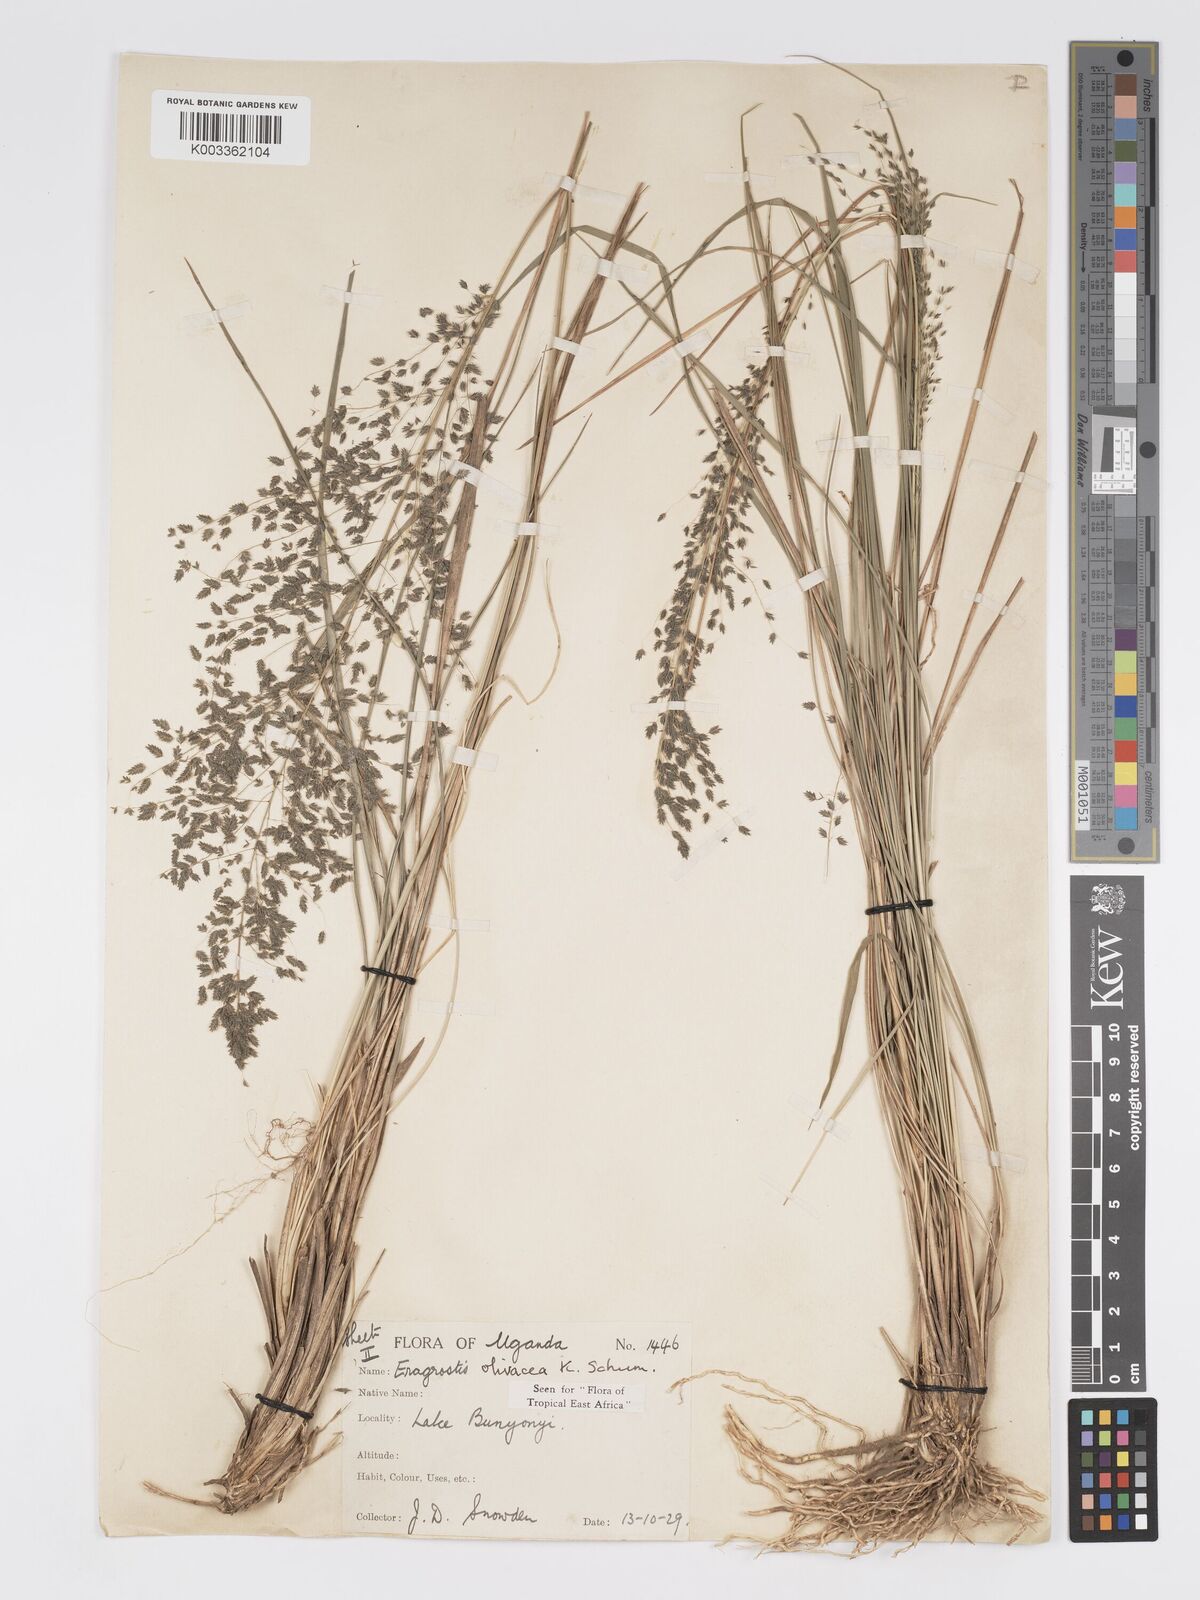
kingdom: Plantae
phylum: Tracheophyta
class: Liliopsida
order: Poales
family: Poaceae
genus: Eragrostis
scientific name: Eragrostis olivacea
